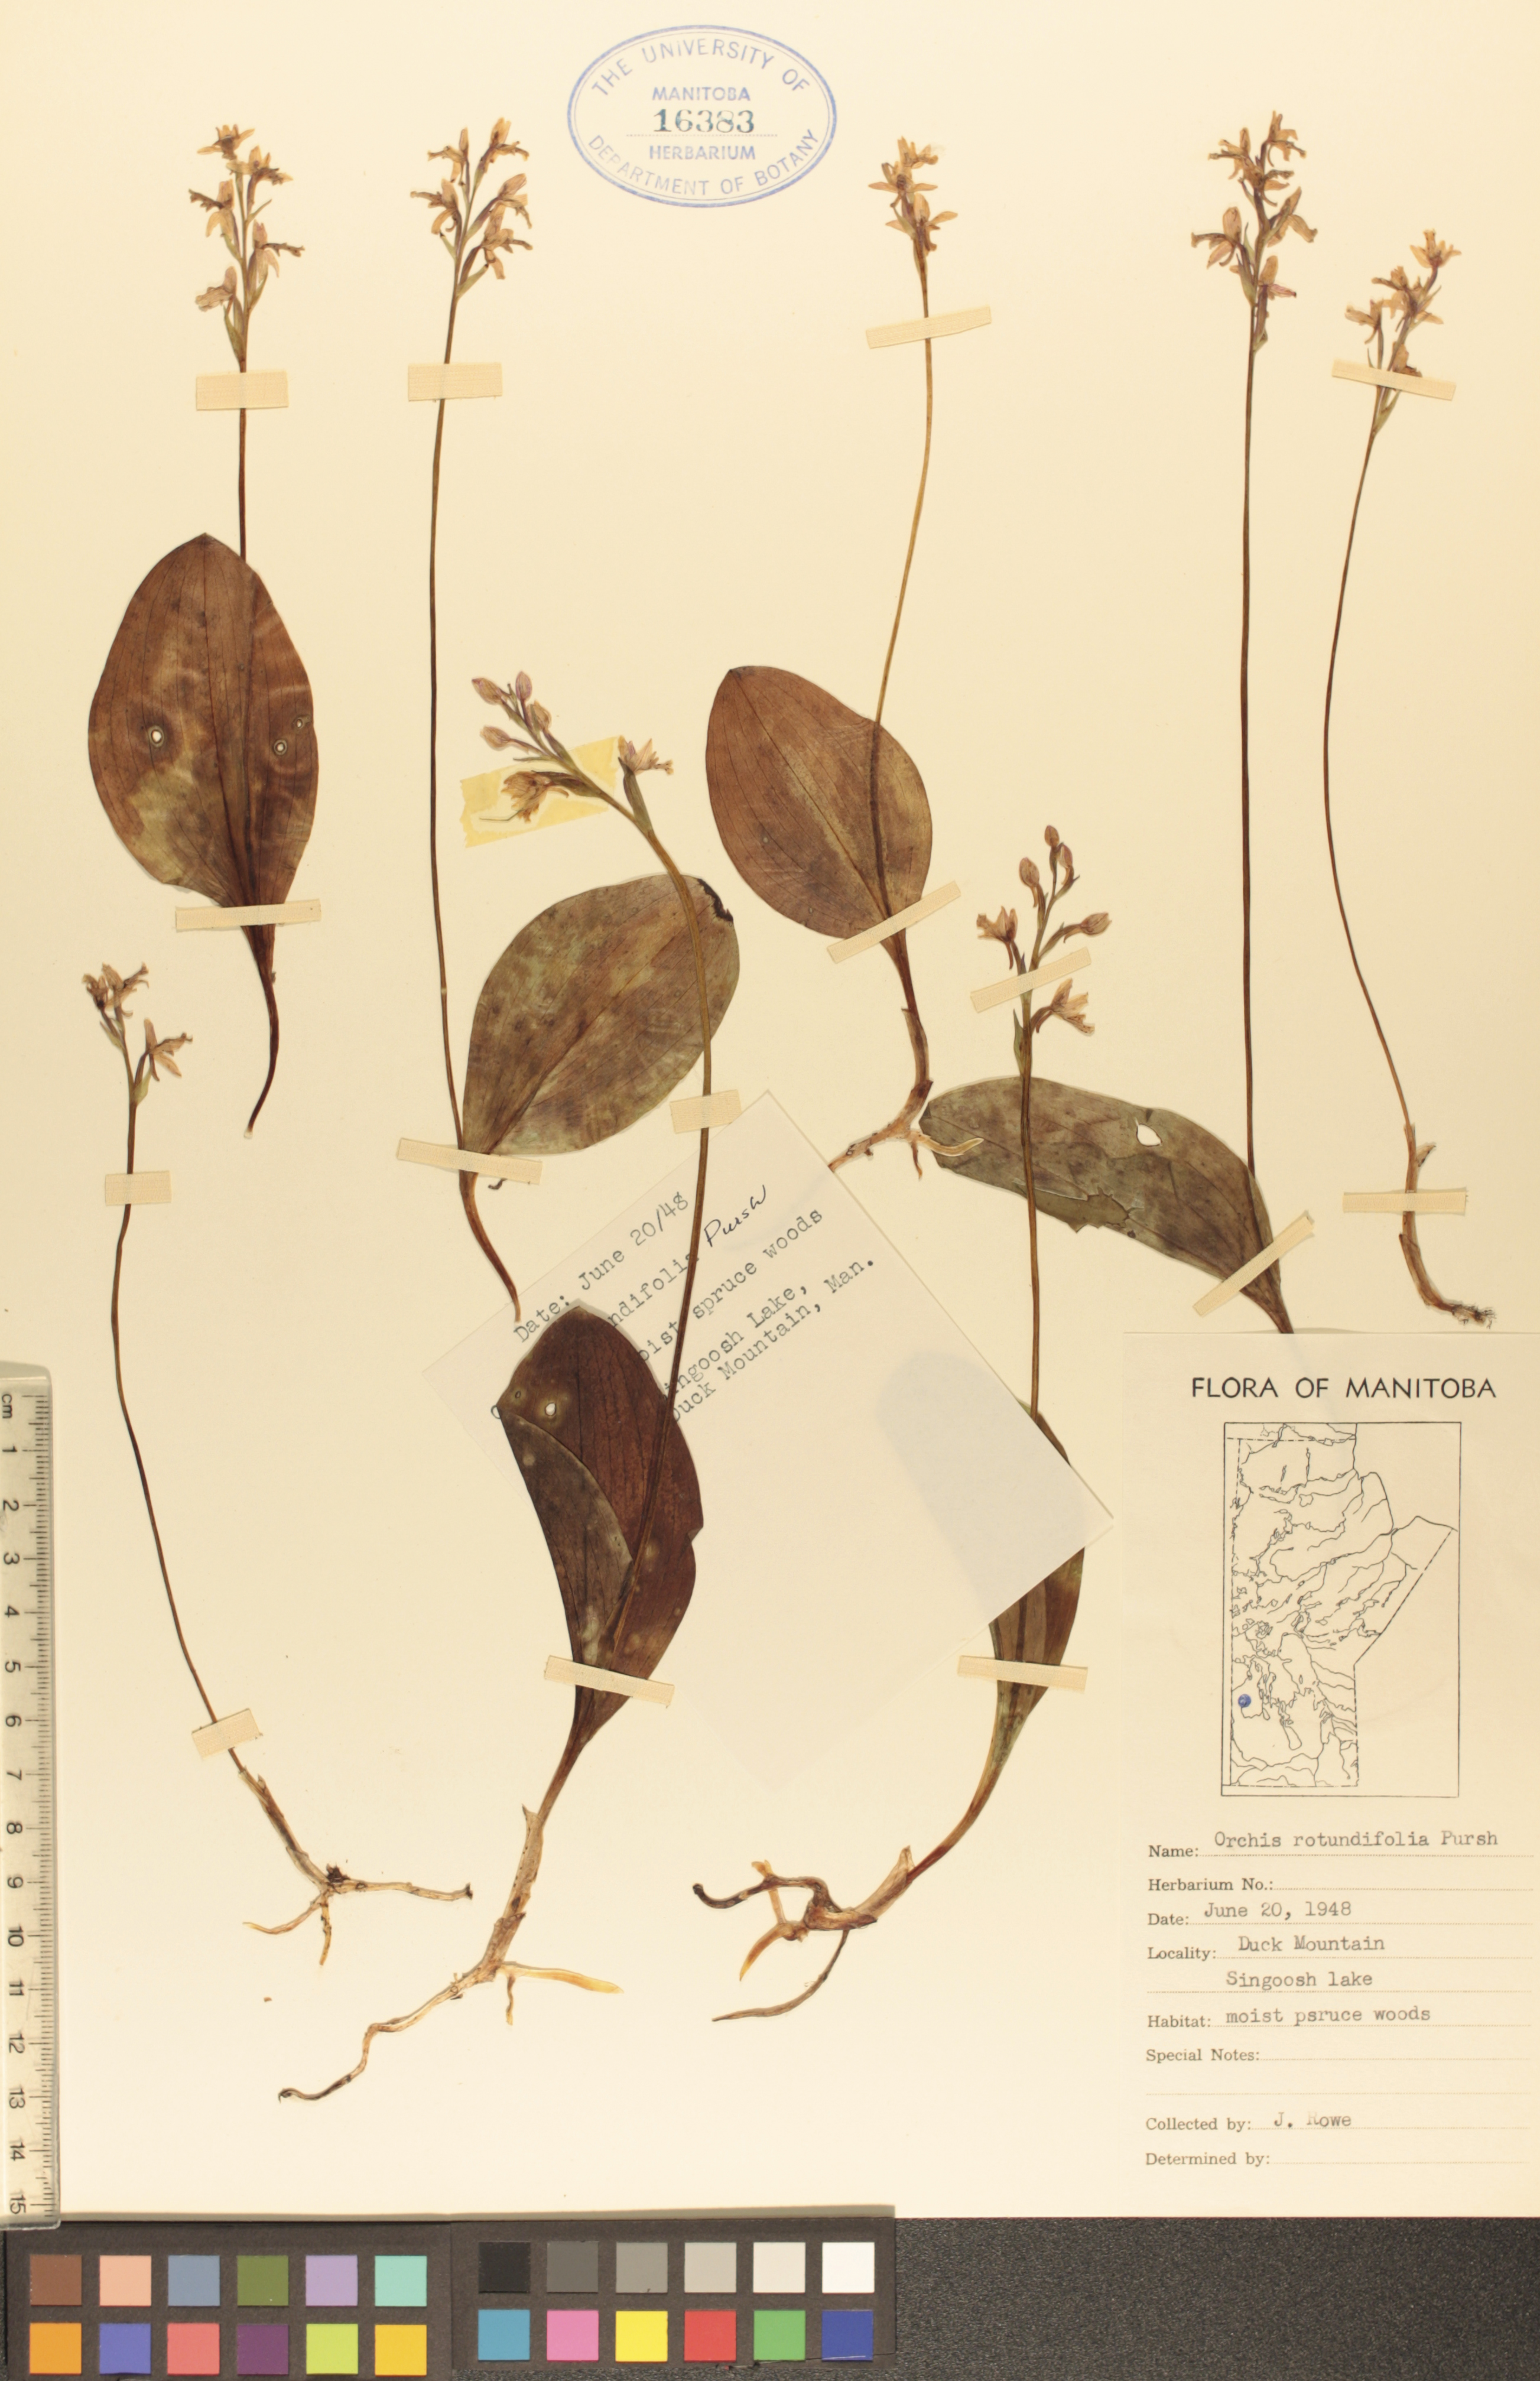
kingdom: Plantae
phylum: Tracheophyta
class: Liliopsida
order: Asparagales
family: Orchidaceae
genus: Galearis
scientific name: Galearis rotundifolia
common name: One-leaved orchis
